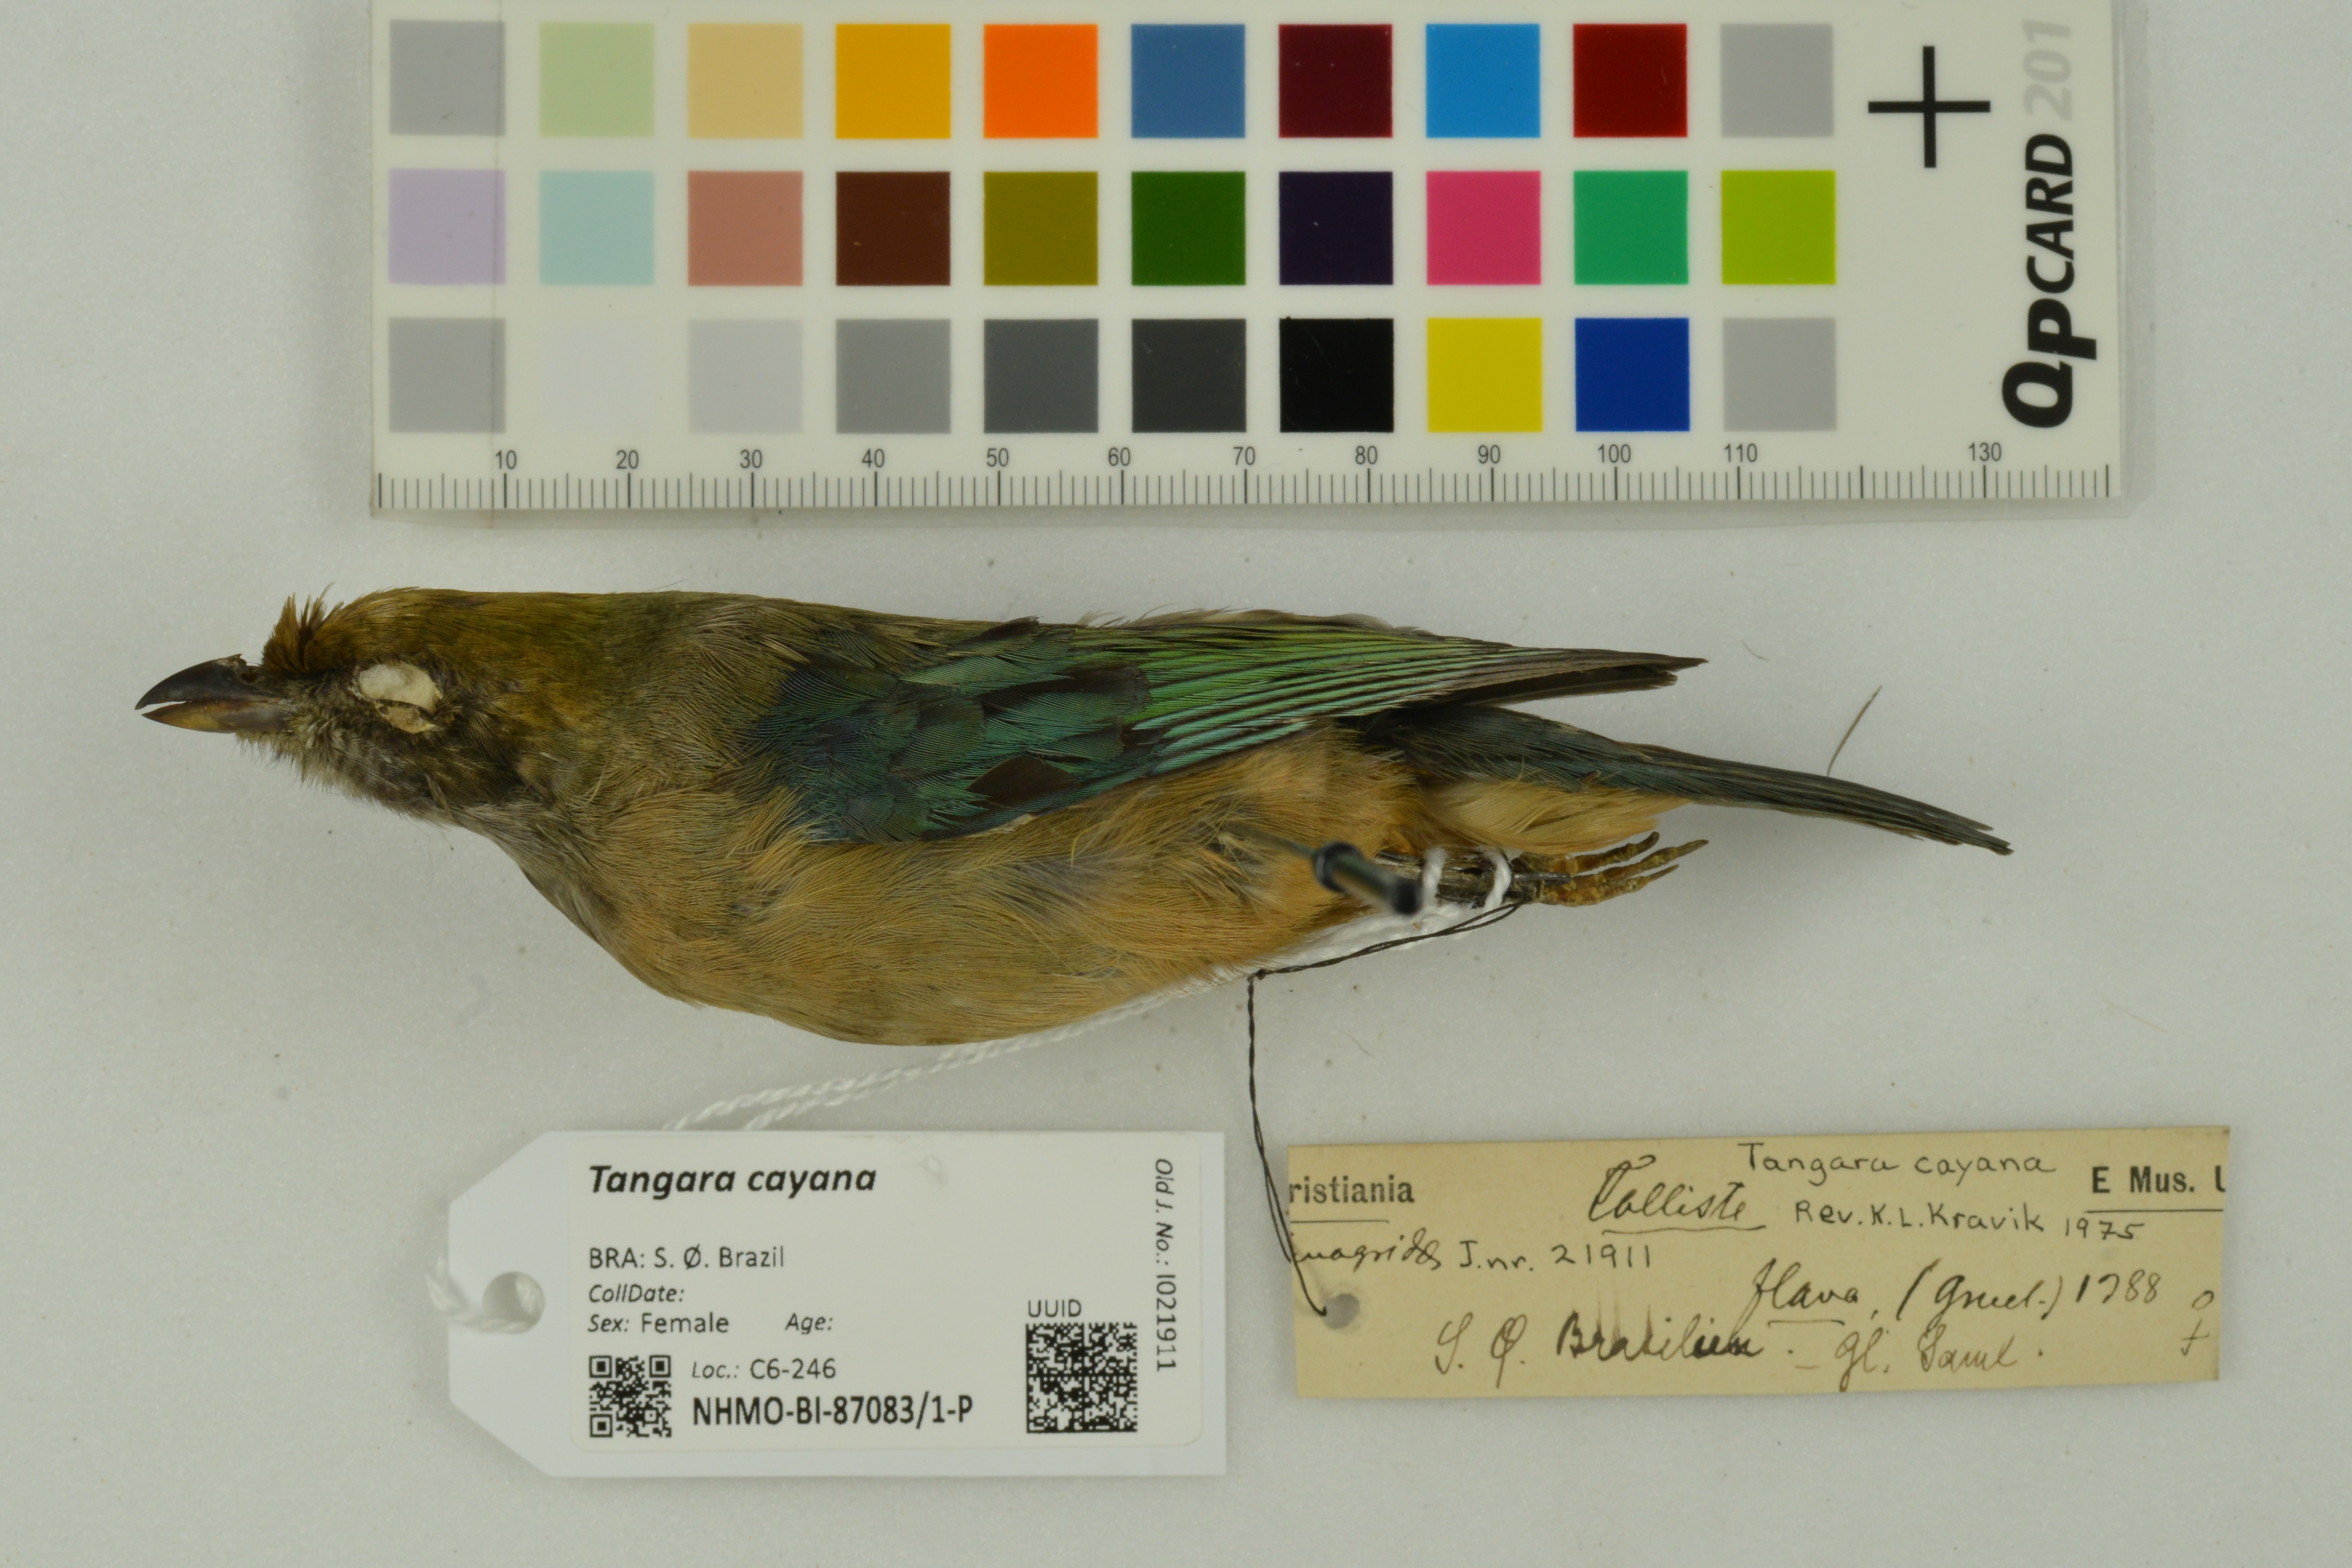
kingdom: Animalia
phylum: Chordata
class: Aves
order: Passeriformes
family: Thraupidae
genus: Stilpnia
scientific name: Stilpnia cayana
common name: Burnished-buff tanager
